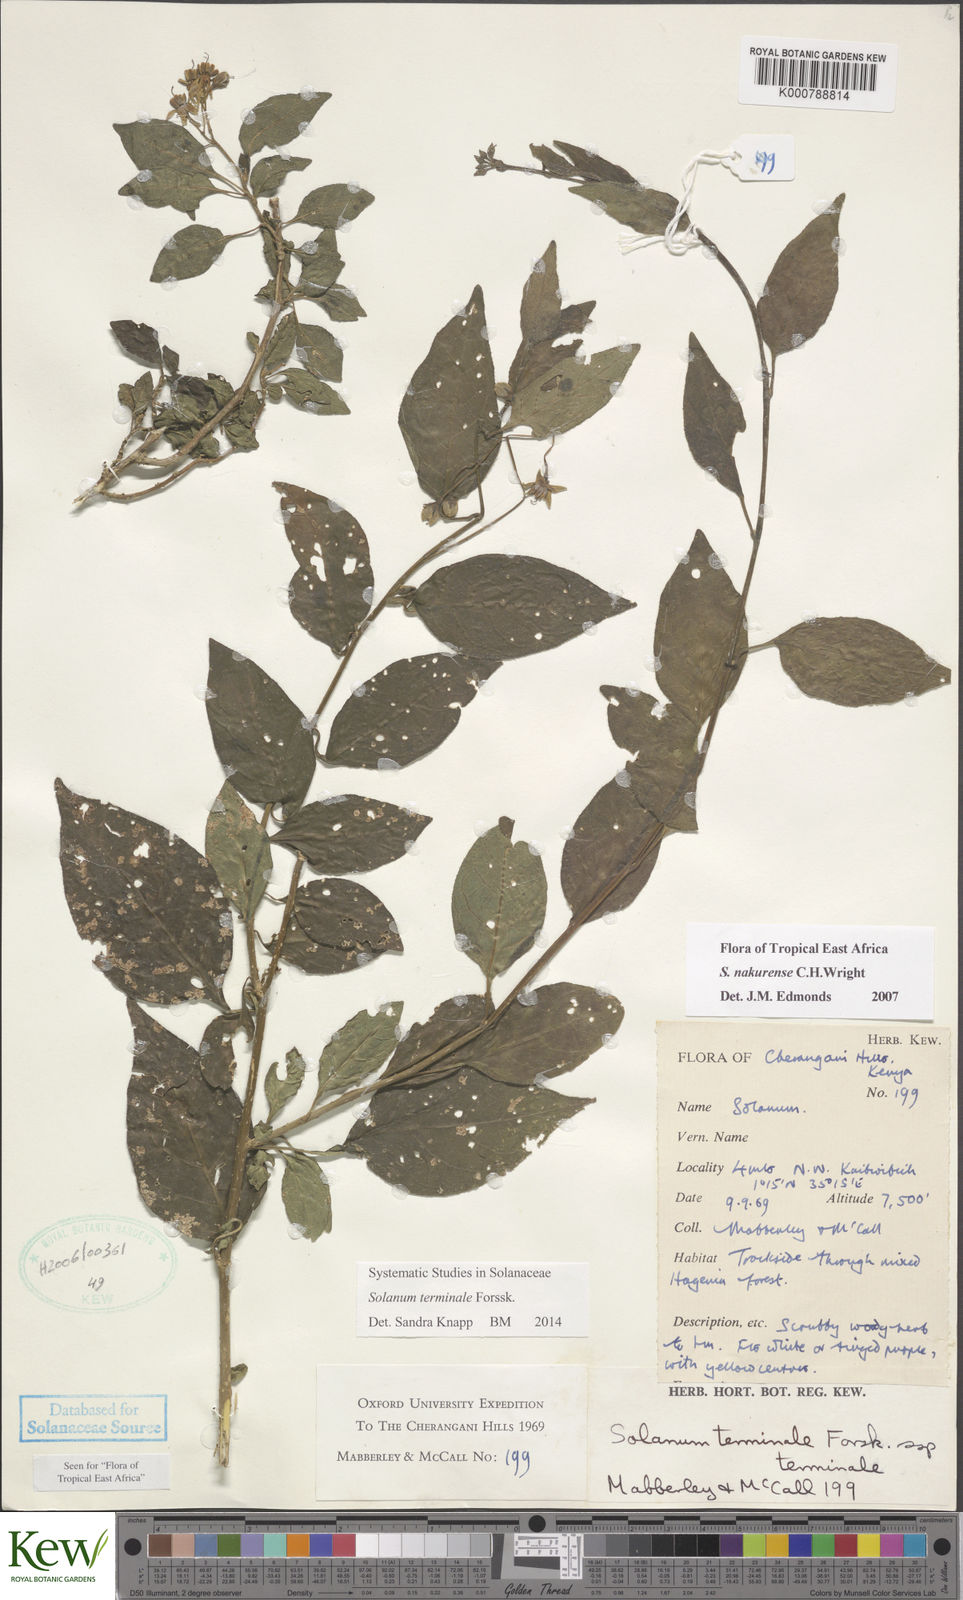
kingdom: Plantae
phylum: Tracheophyta
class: Magnoliopsida
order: Solanales
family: Solanaceae
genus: Solanum
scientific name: Solanum terminale
